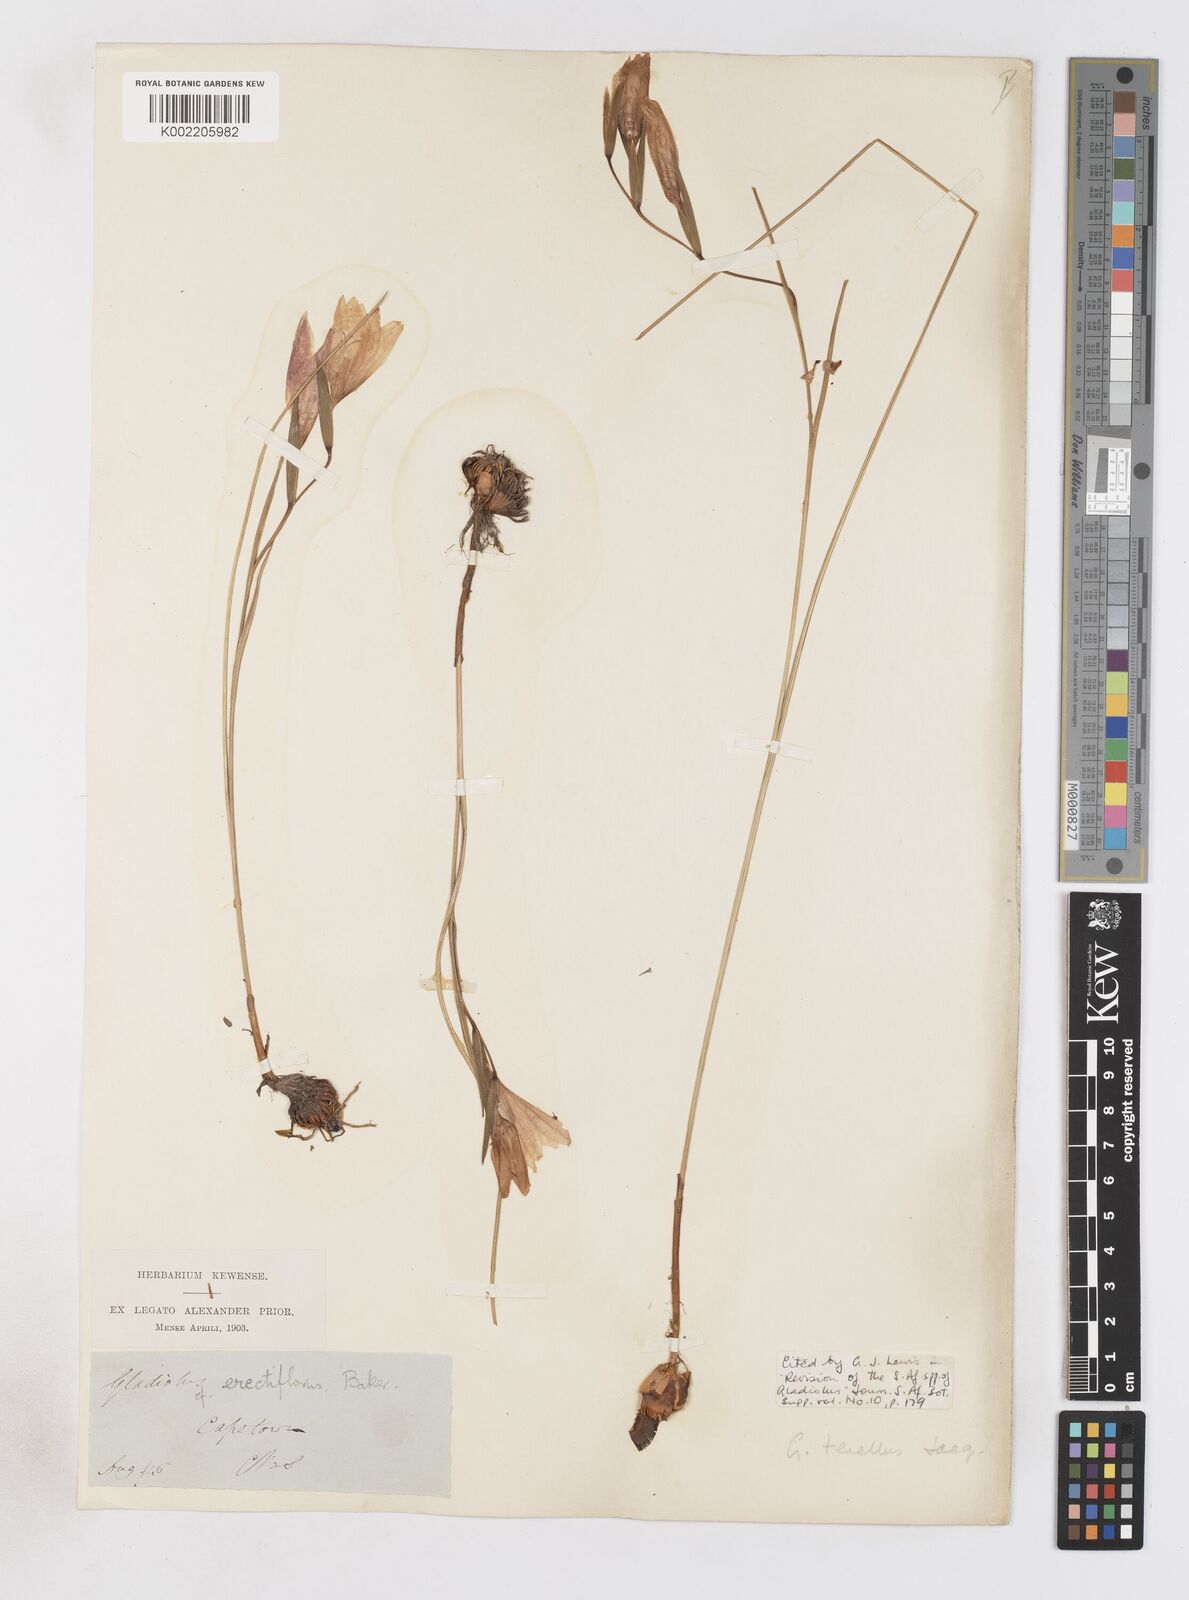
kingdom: Plantae
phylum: Tracheophyta
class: Liliopsida
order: Asparagales
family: Iridaceae
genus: Gladiolus
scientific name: Gladiolus carinatus
